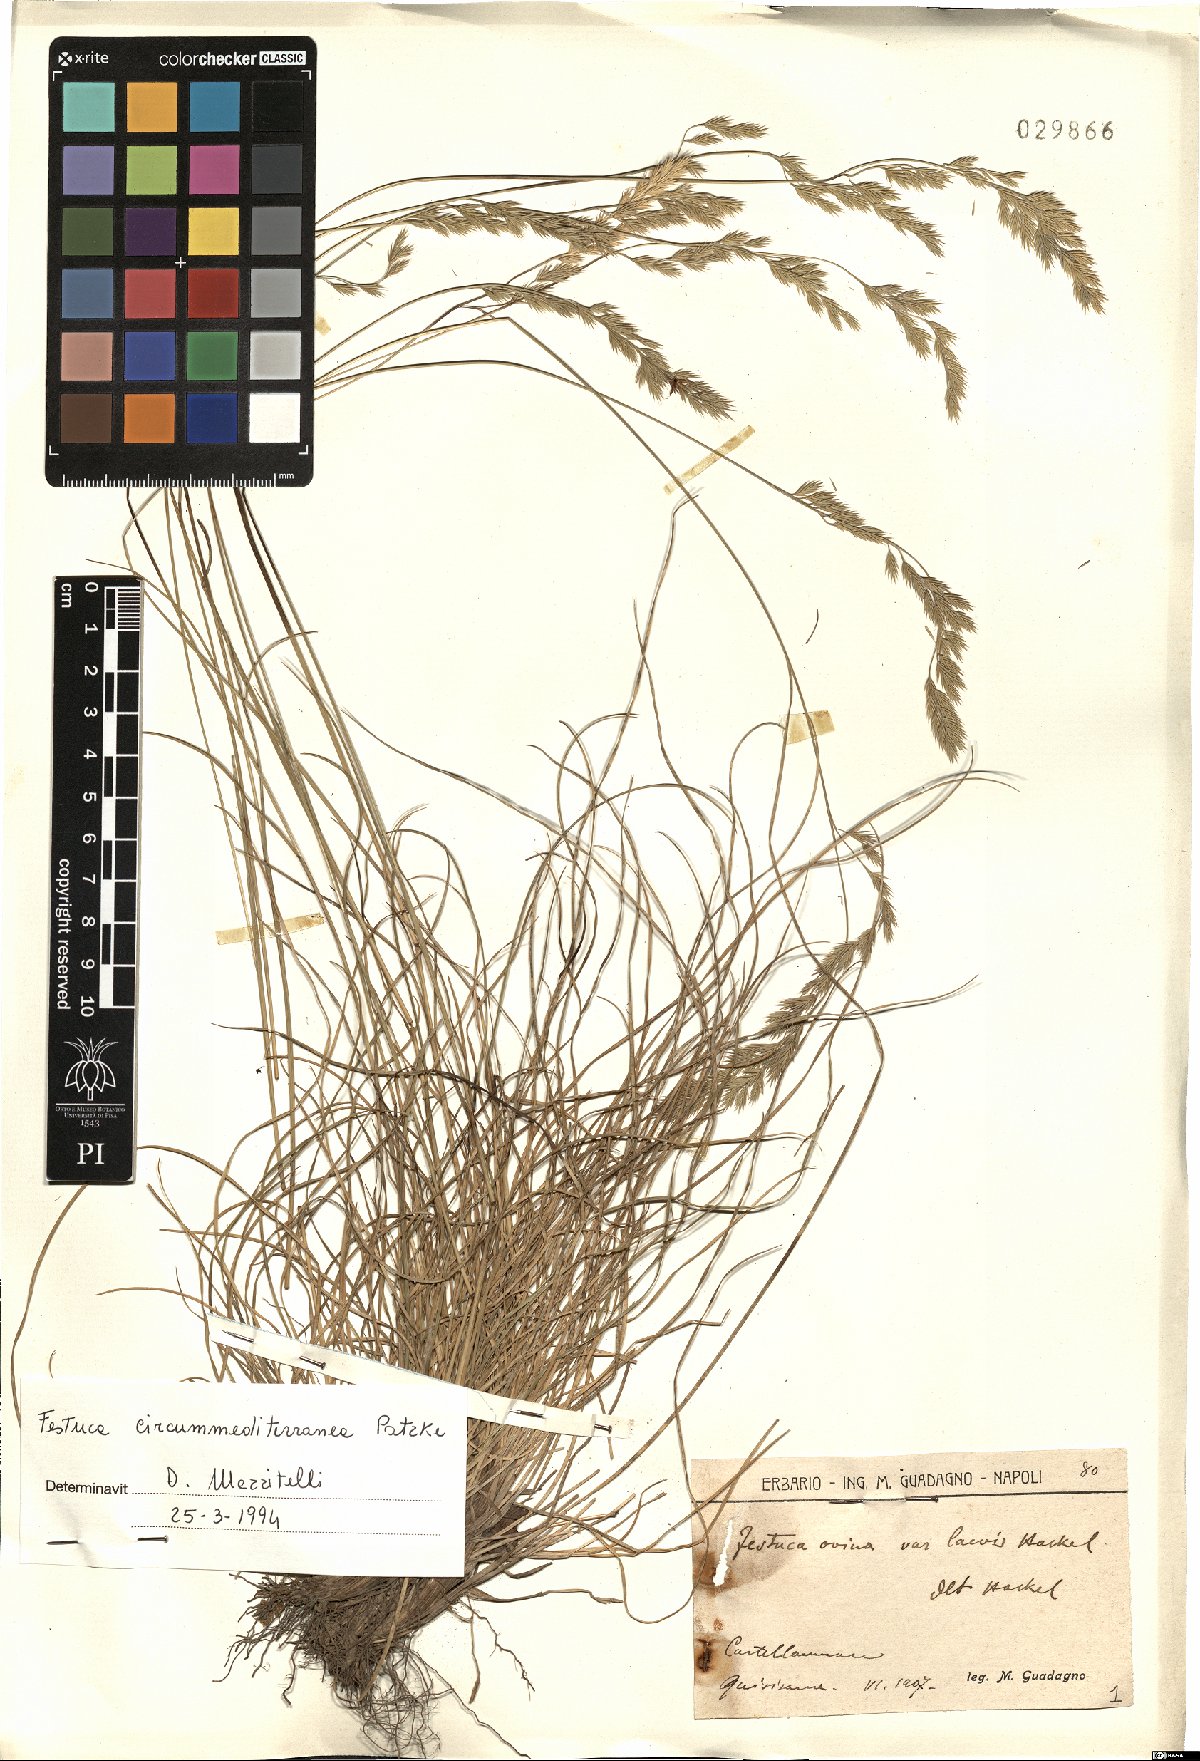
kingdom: Plantae
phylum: Tracheophyta
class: Liliopsida
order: Poales
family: Poaceae
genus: Festuca
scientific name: Festuca circummediterranea
